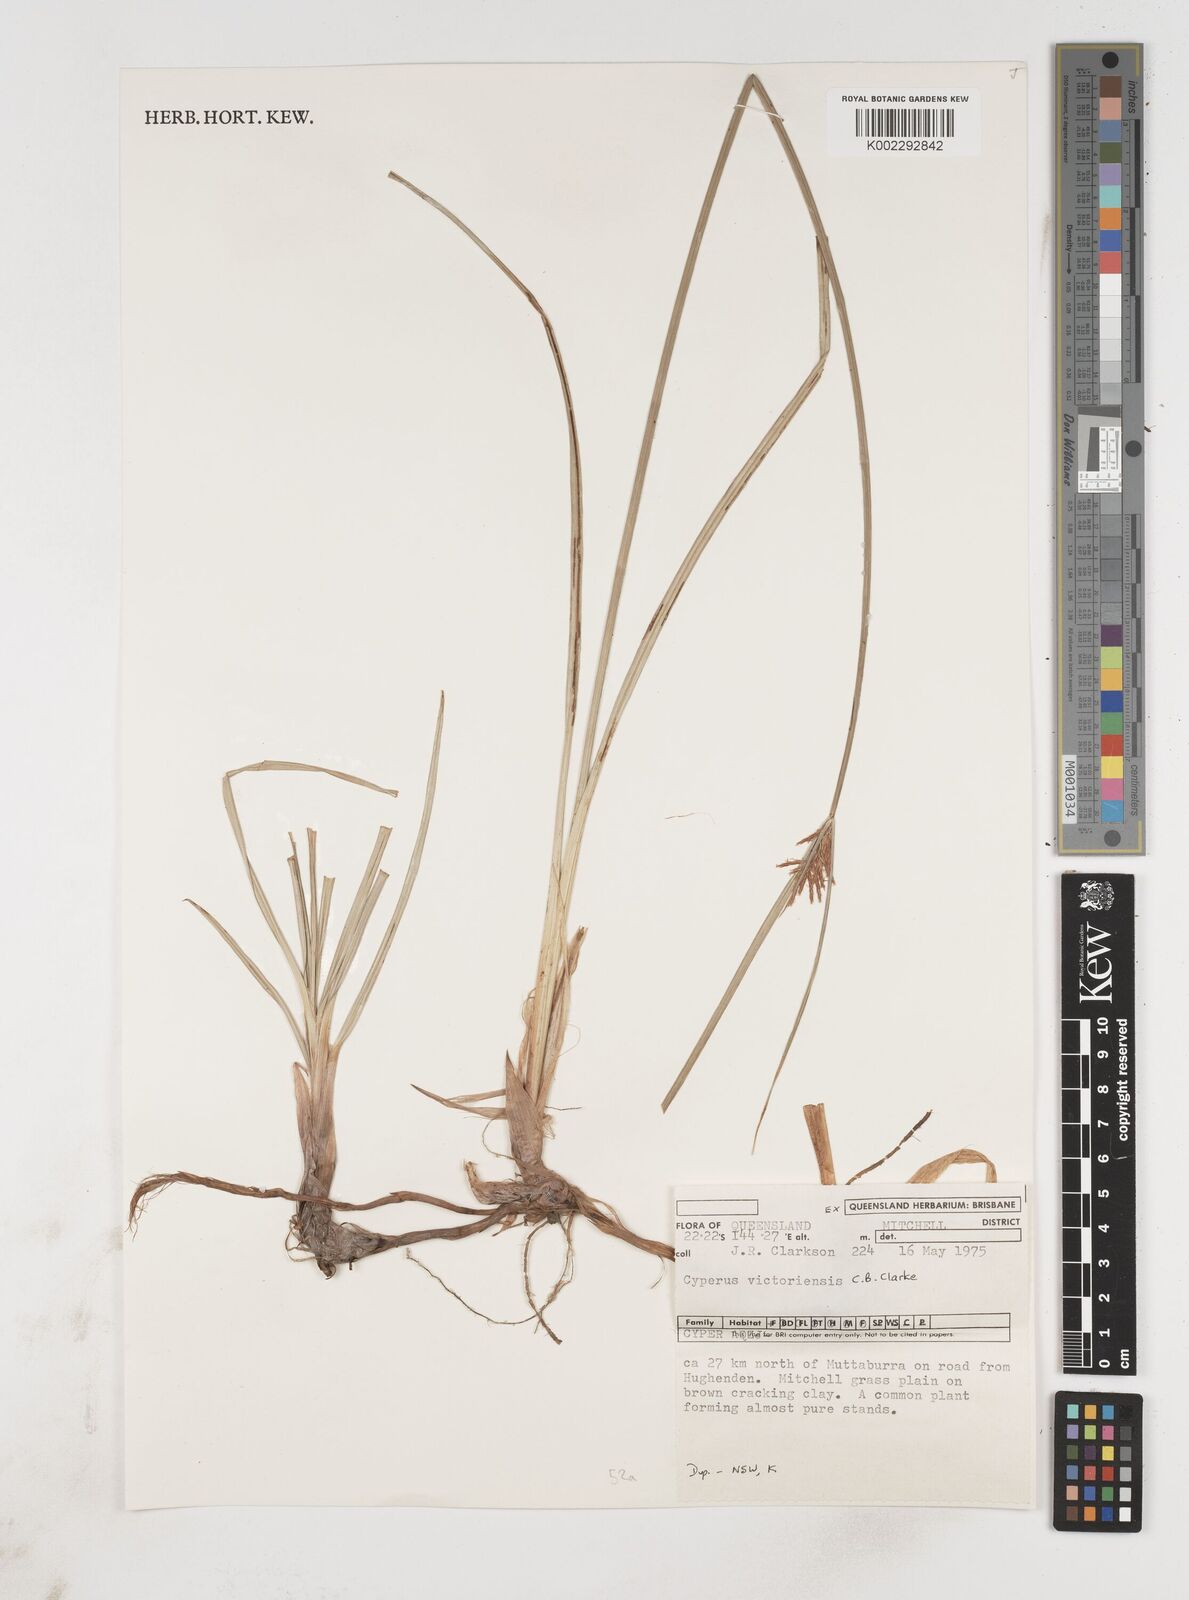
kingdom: Plantae
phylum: Tracheophyta
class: Liliopsida
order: Poales
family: Cyperaceae
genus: Cyperus
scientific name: Cyperus victoriensis
